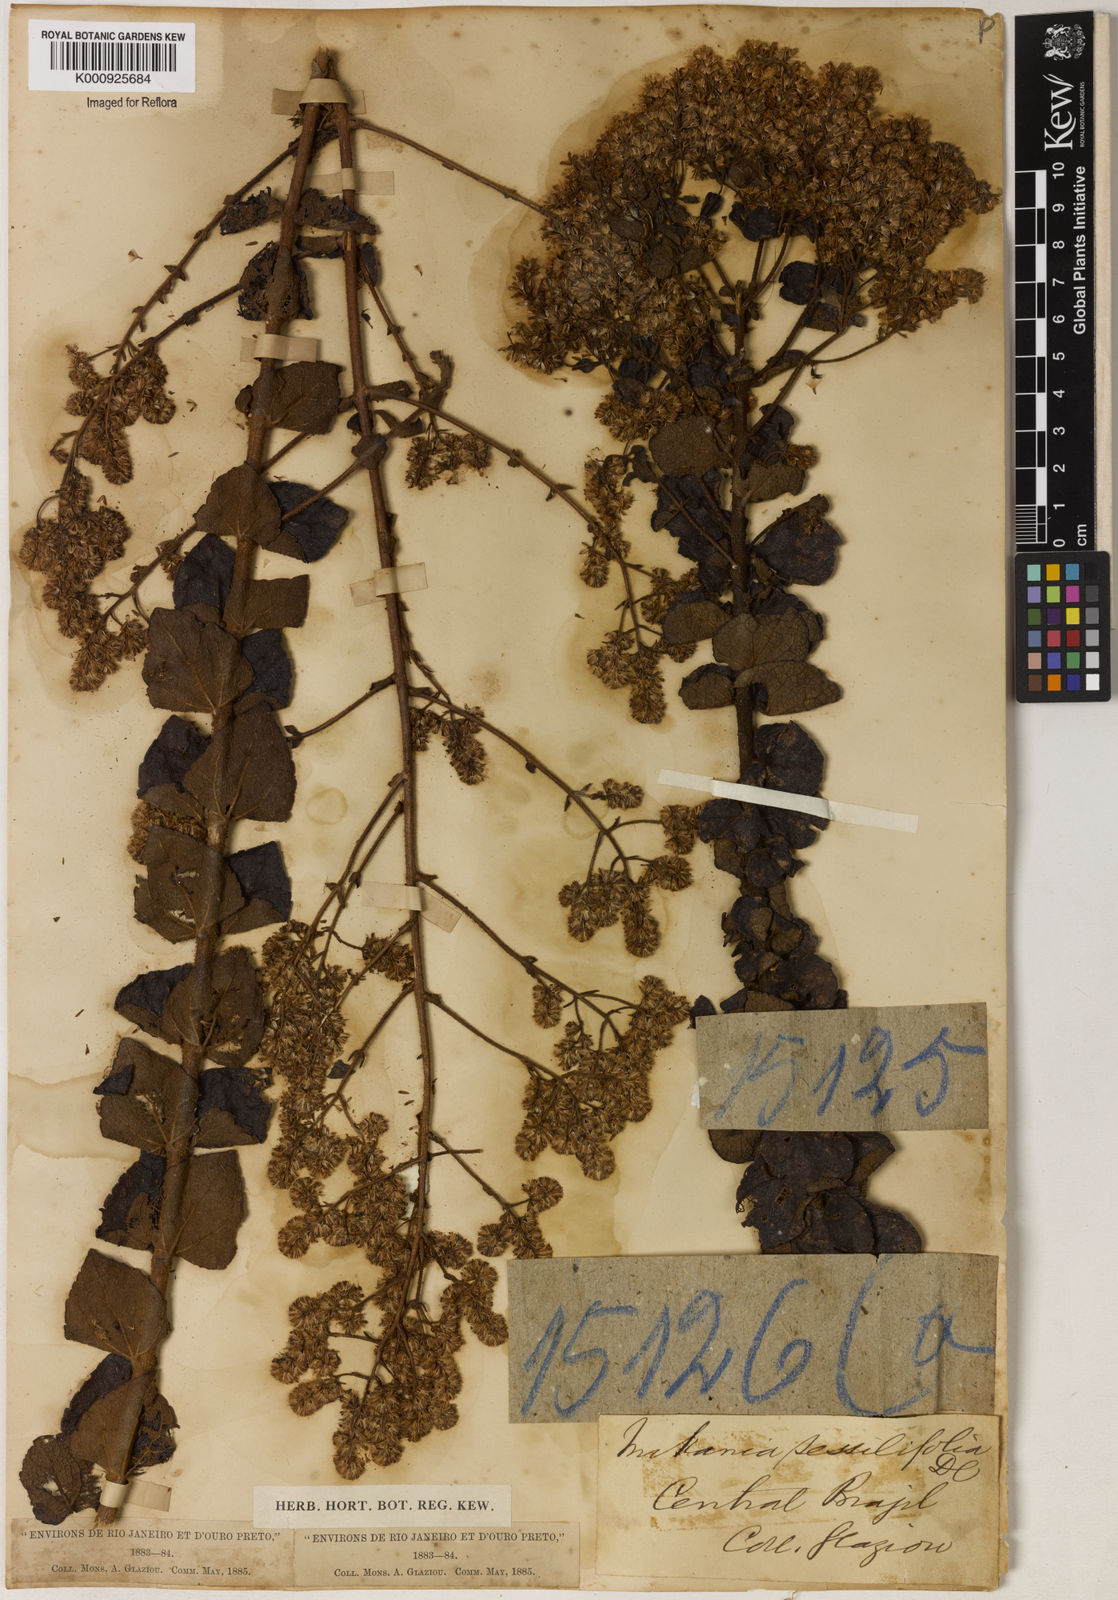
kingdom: Plantae
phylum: Tracheophyta
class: Magnoliopsida
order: Asterales
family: Asteraceae
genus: Mikania
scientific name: Mikania sessilifolia
